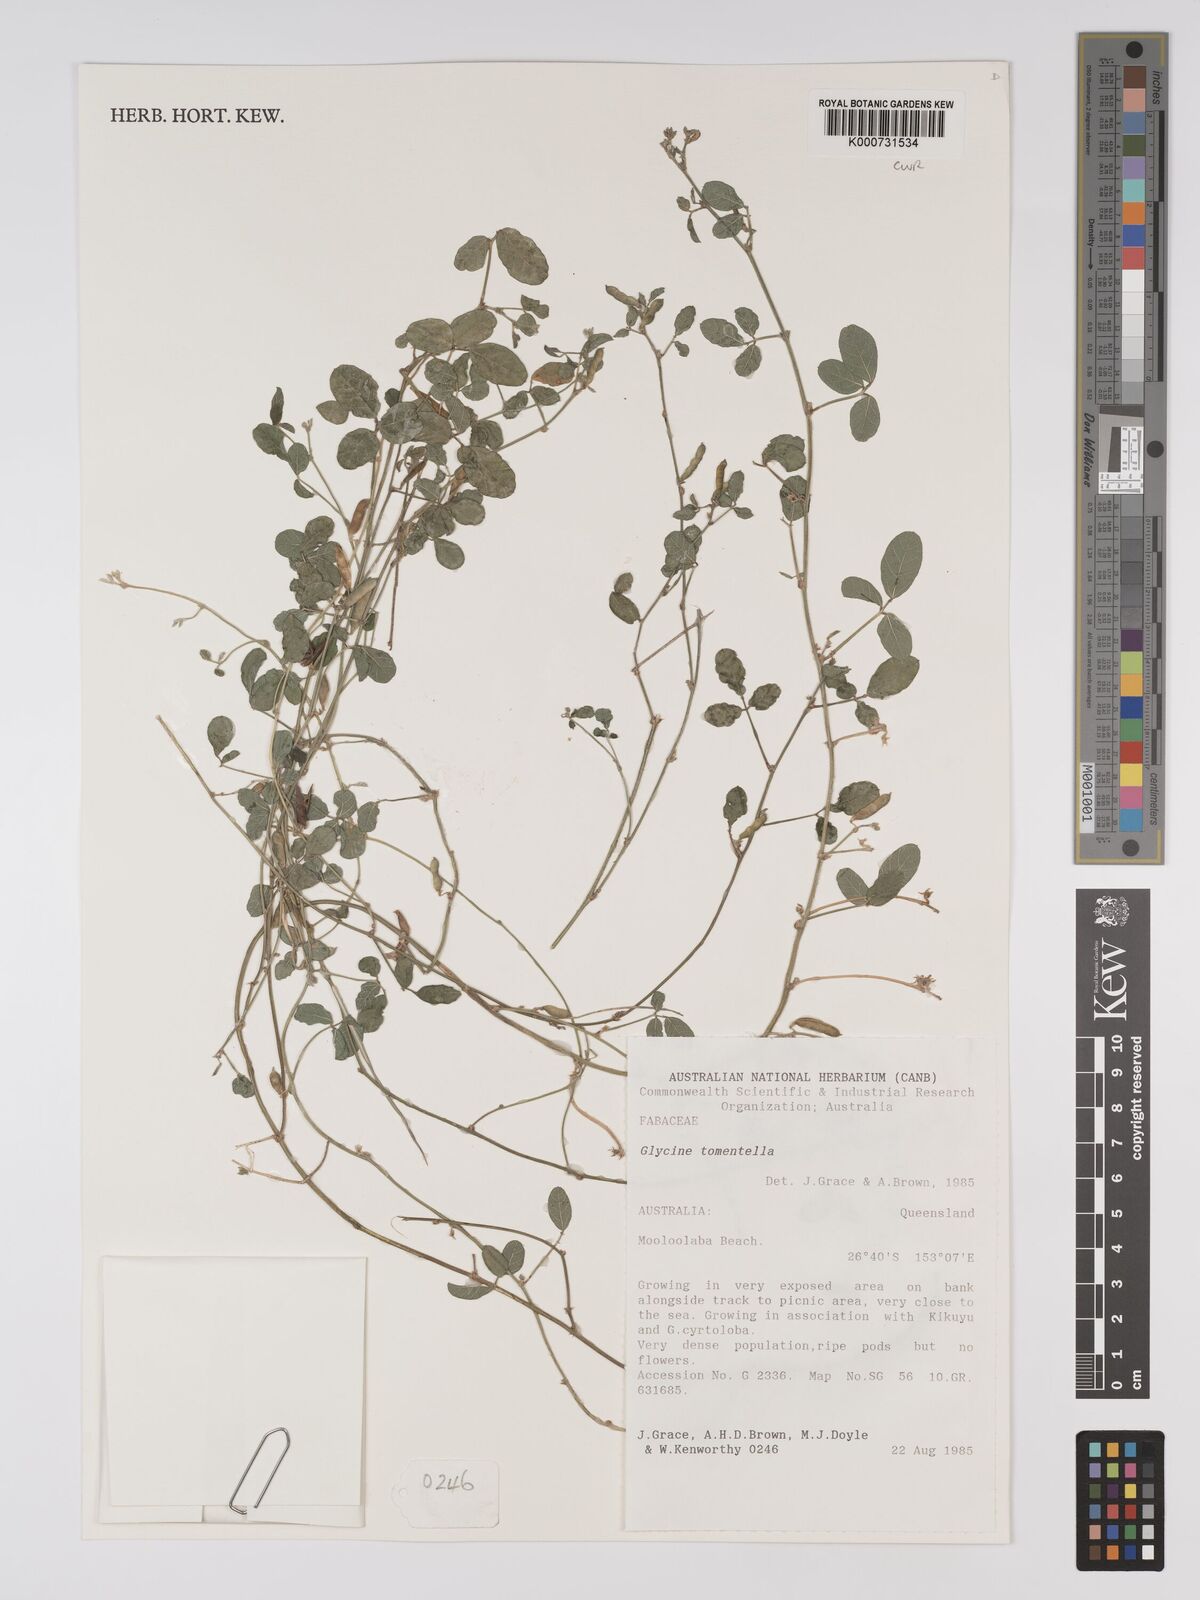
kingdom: Plantae
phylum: Tracheophyta
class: Magnoliopsida
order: Fabales
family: Fabaceae
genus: Glycine
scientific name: Glycine tomentella
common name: Hairy glycine
